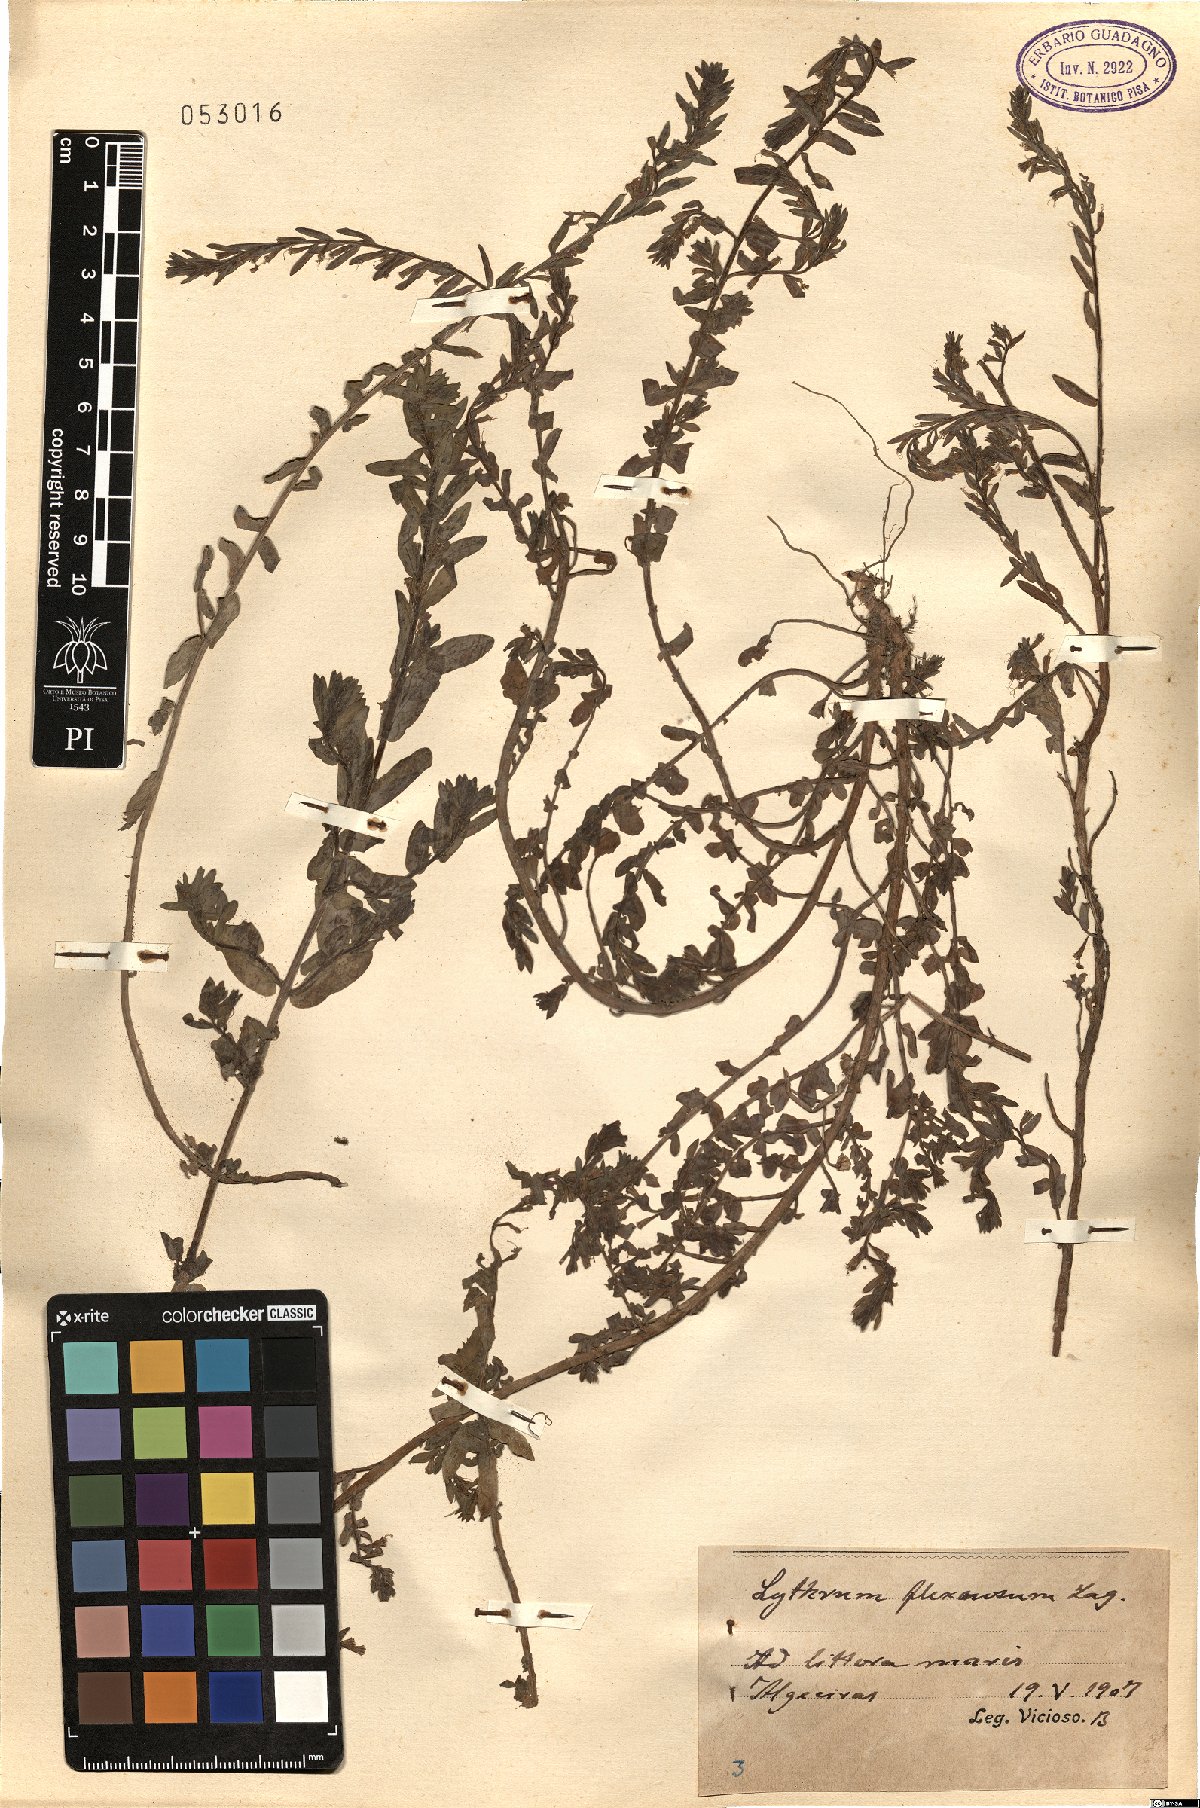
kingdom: Plantae
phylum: Tracheophyta
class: Magnoliopsida
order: Myrtales
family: Lythraceae
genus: Lythrum
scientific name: Lythrum flexuosum
